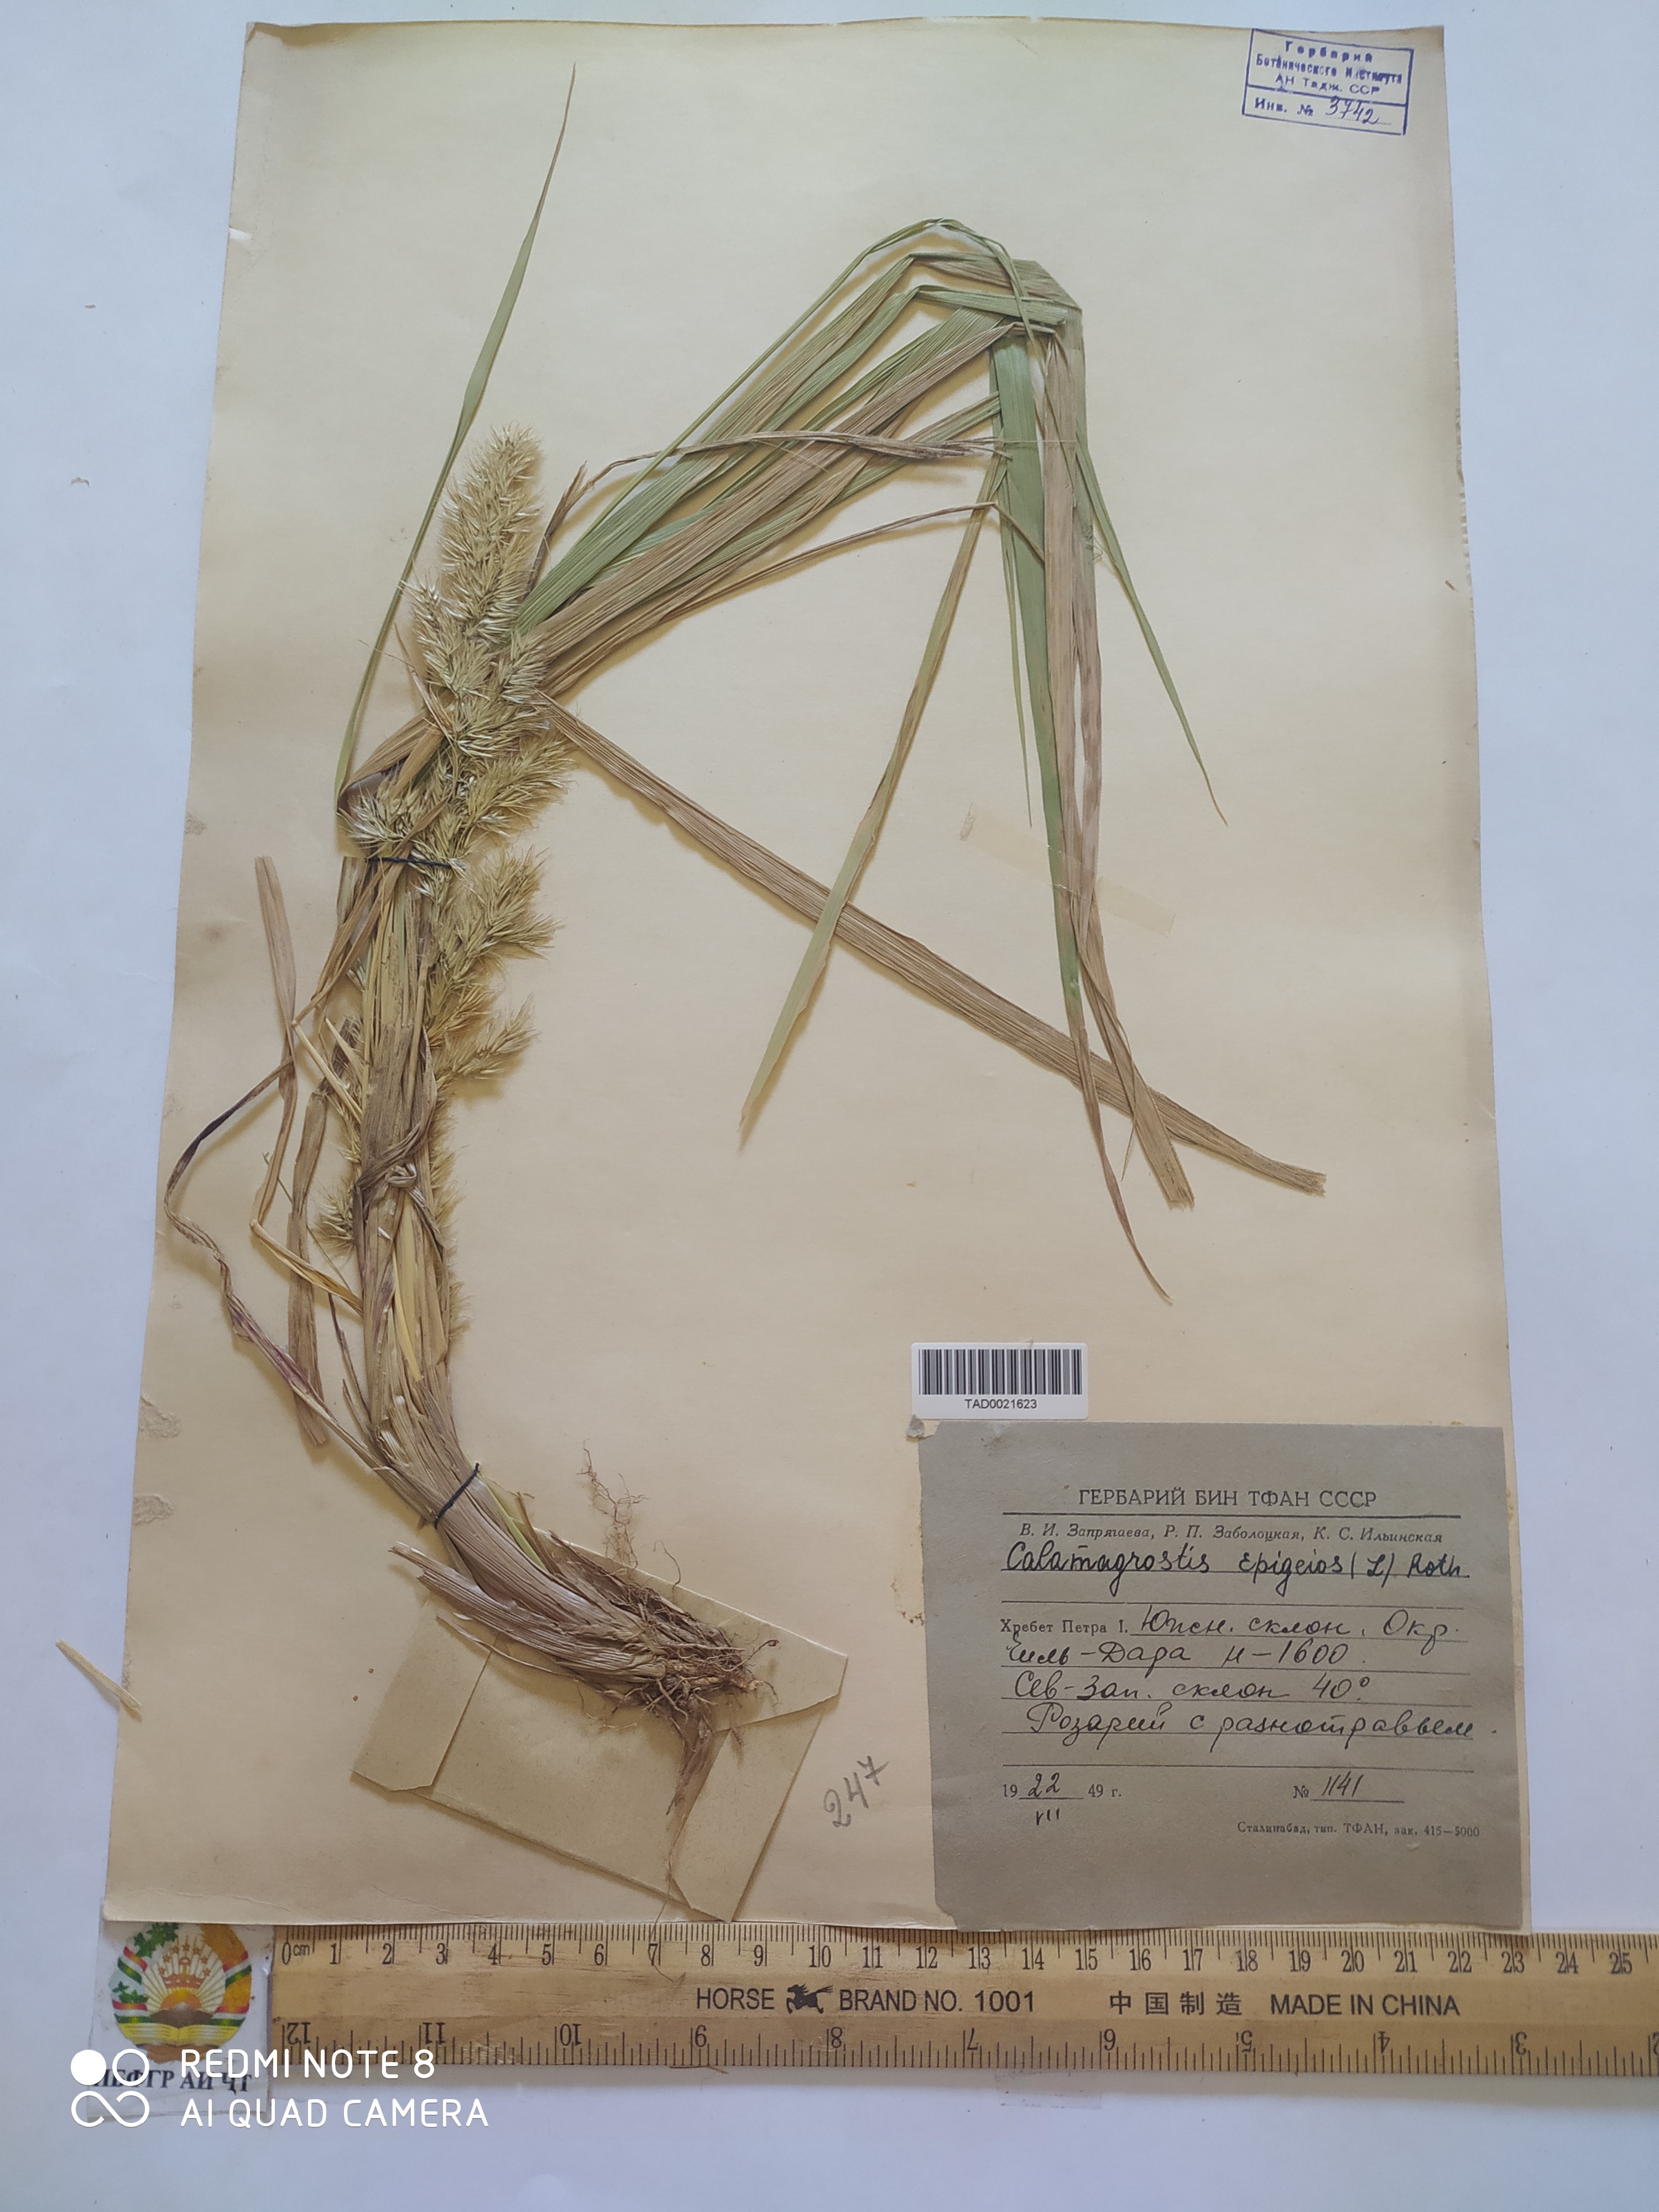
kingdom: Plantae
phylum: Tracheophyta
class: Liliopsida
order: Poales
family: Poaceae
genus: Calamagrostis
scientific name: Calamagrostis epigejos
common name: Wood small-reed
